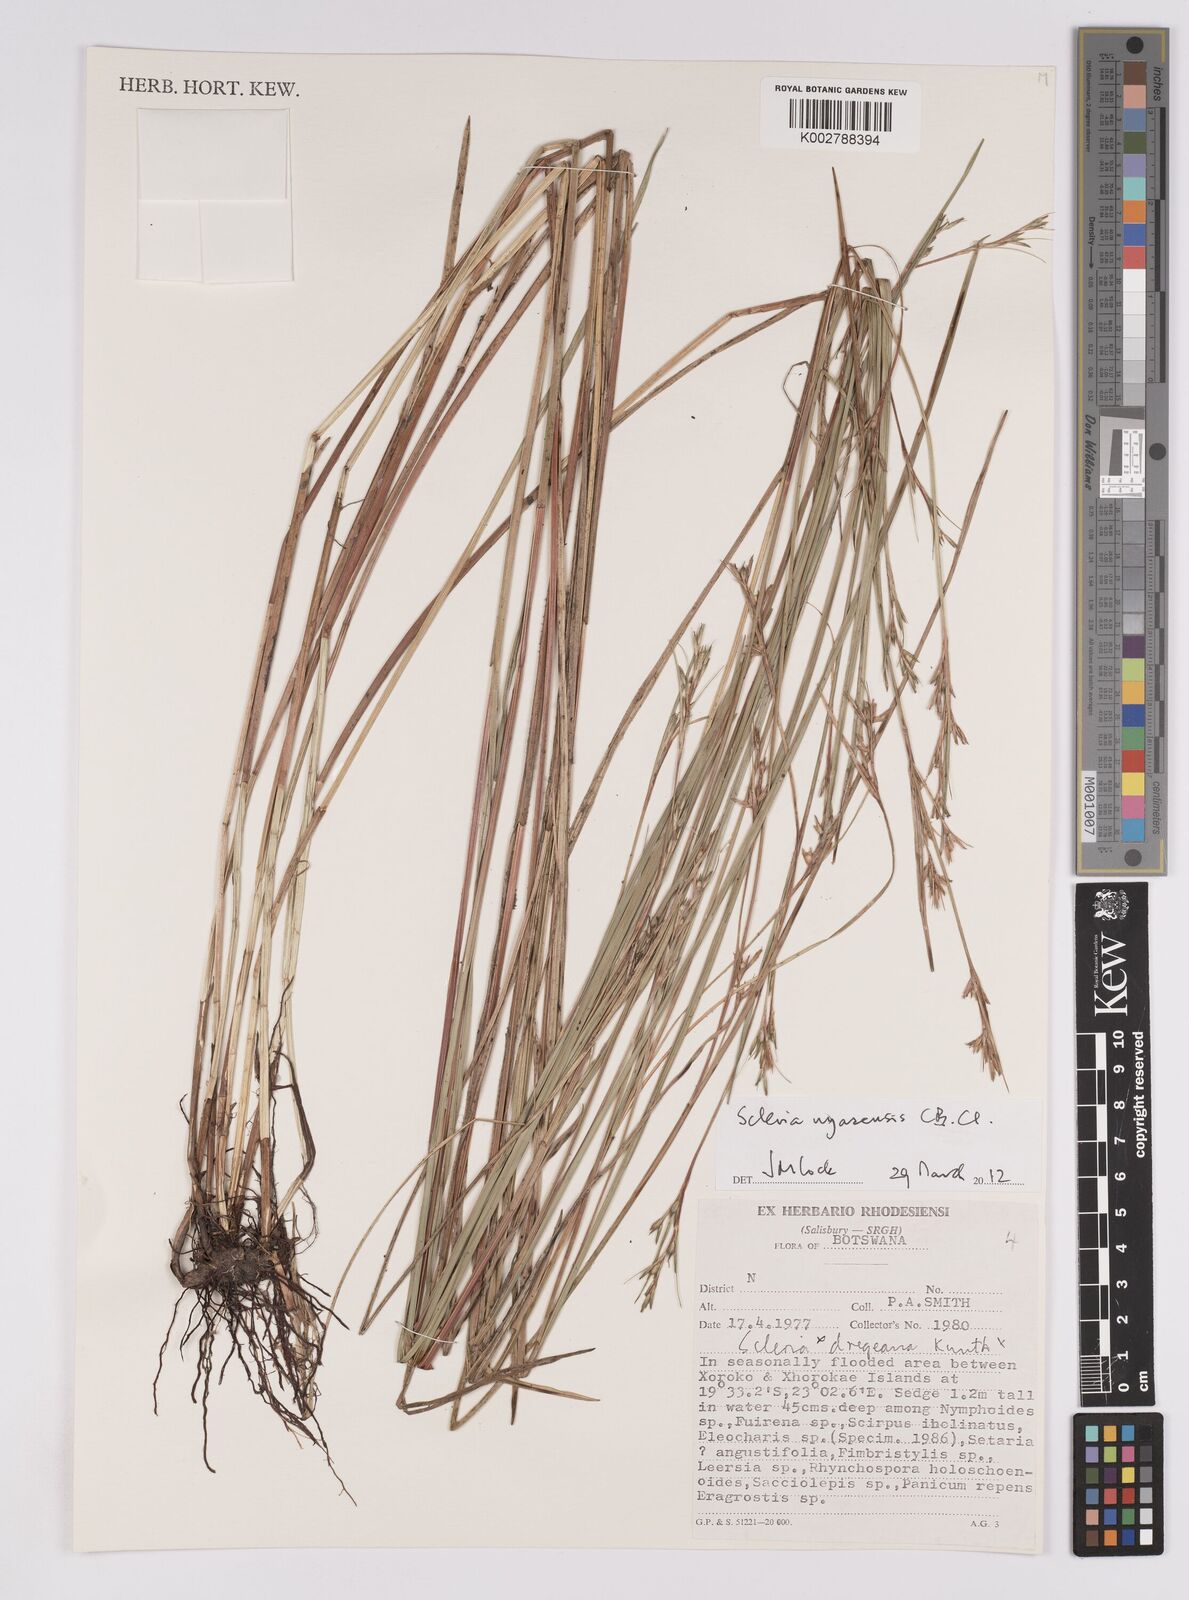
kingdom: Plantae
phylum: Tracheophyta
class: Liliopsida
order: Poales
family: Cyperaceae
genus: Scleria
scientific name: Scleria nyasensis
